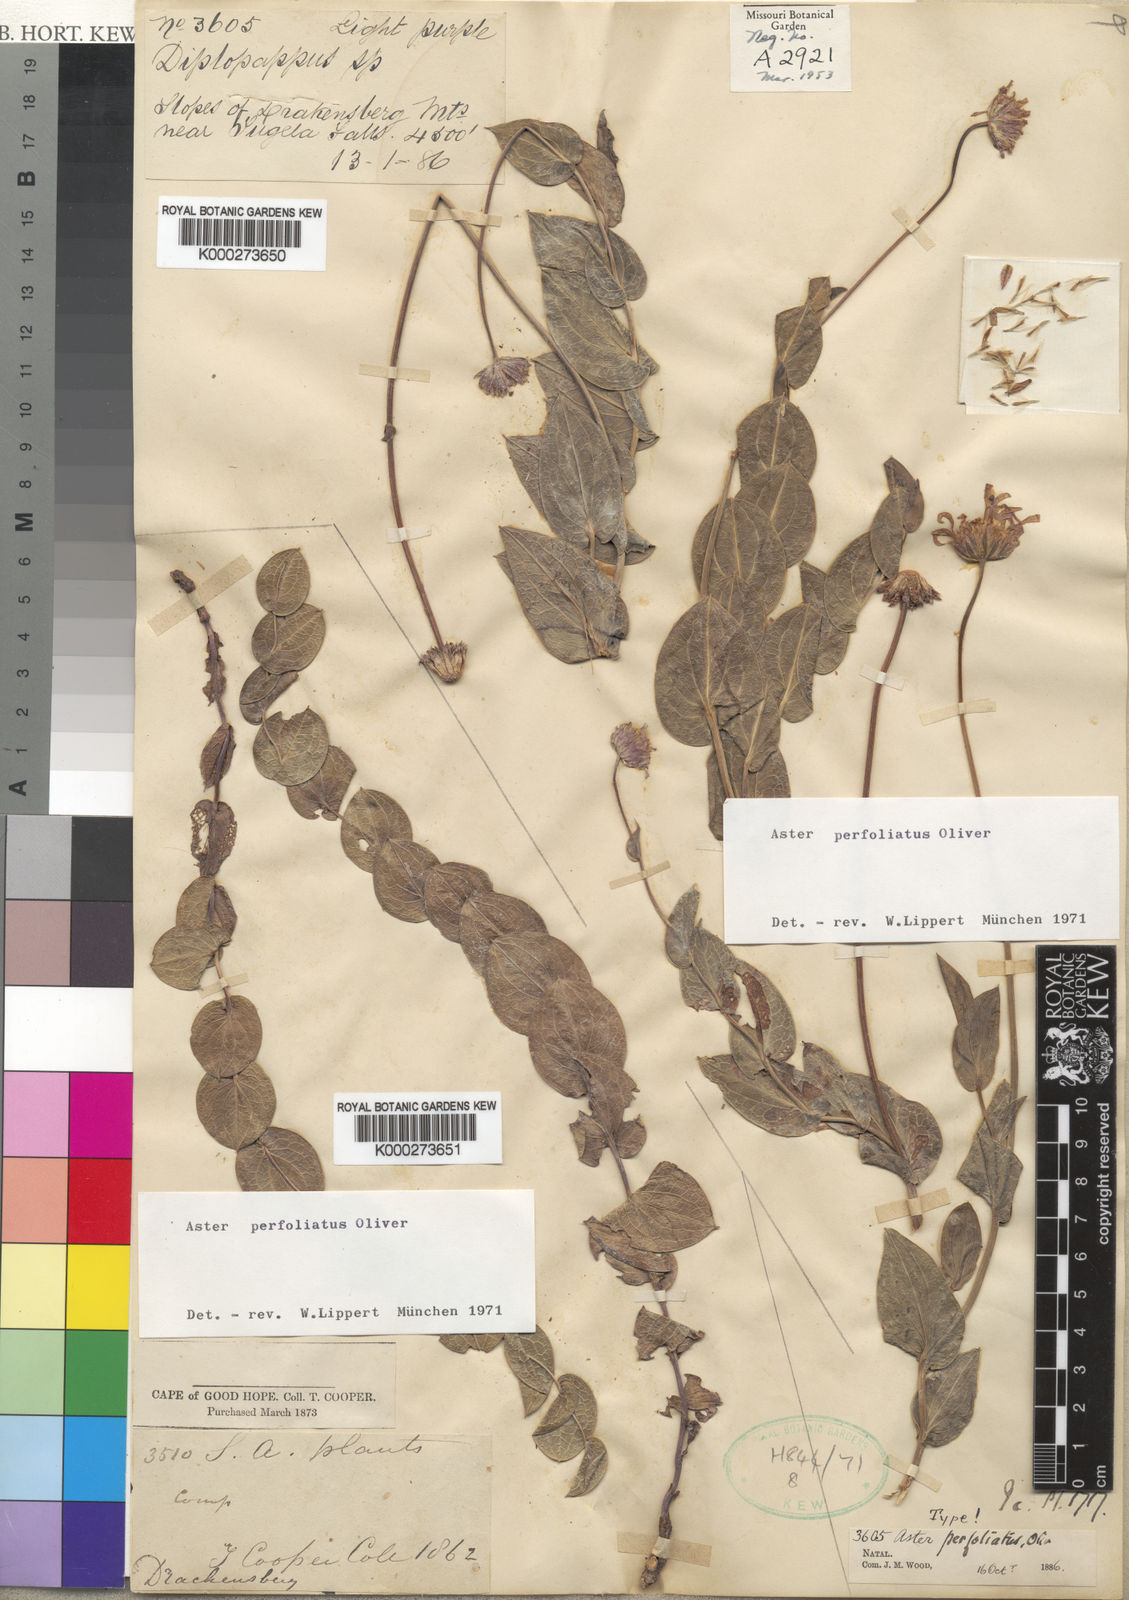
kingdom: Plantae
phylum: Tracheophyta
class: Magnoliopsida
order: Asterales
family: Asteraceae
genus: Afroaster
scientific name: Afroaster perfoliatus
